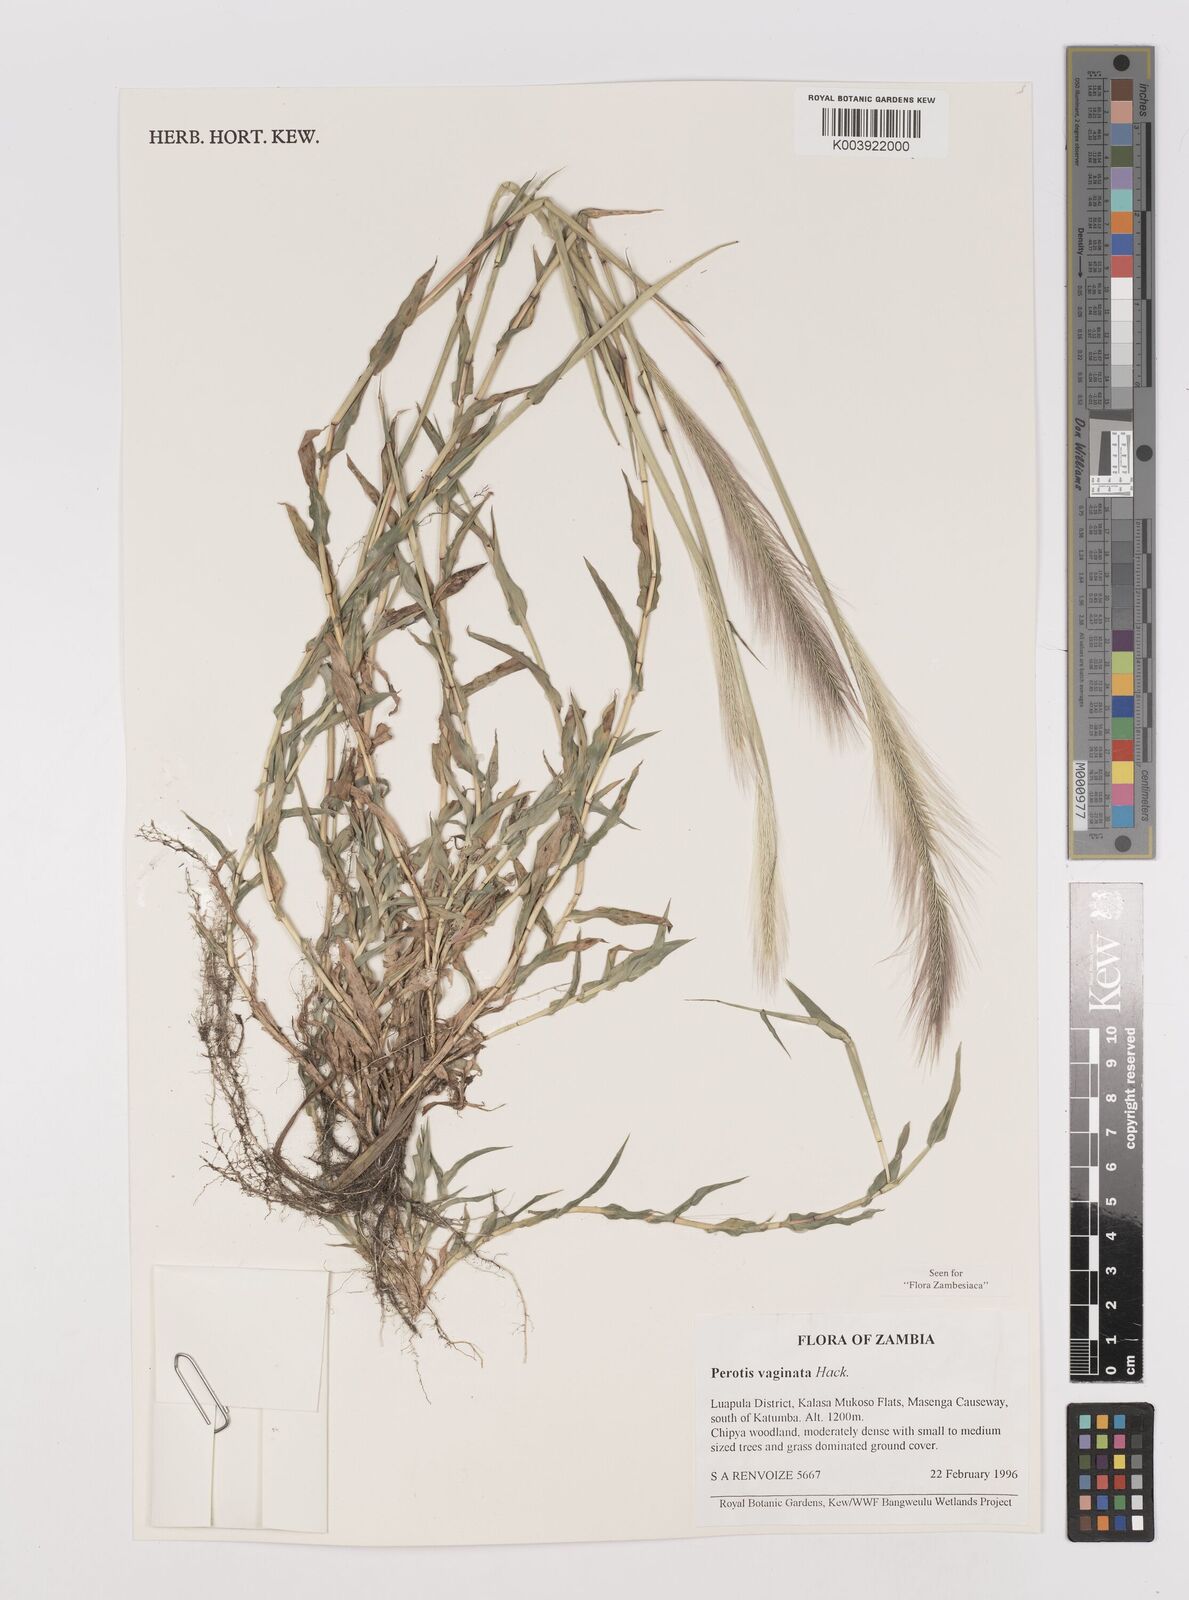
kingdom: Plantae
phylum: Tracheophyta
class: Liliopsida
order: Poales
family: Poaceae
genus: Perotis
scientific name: Perotis vaginata
